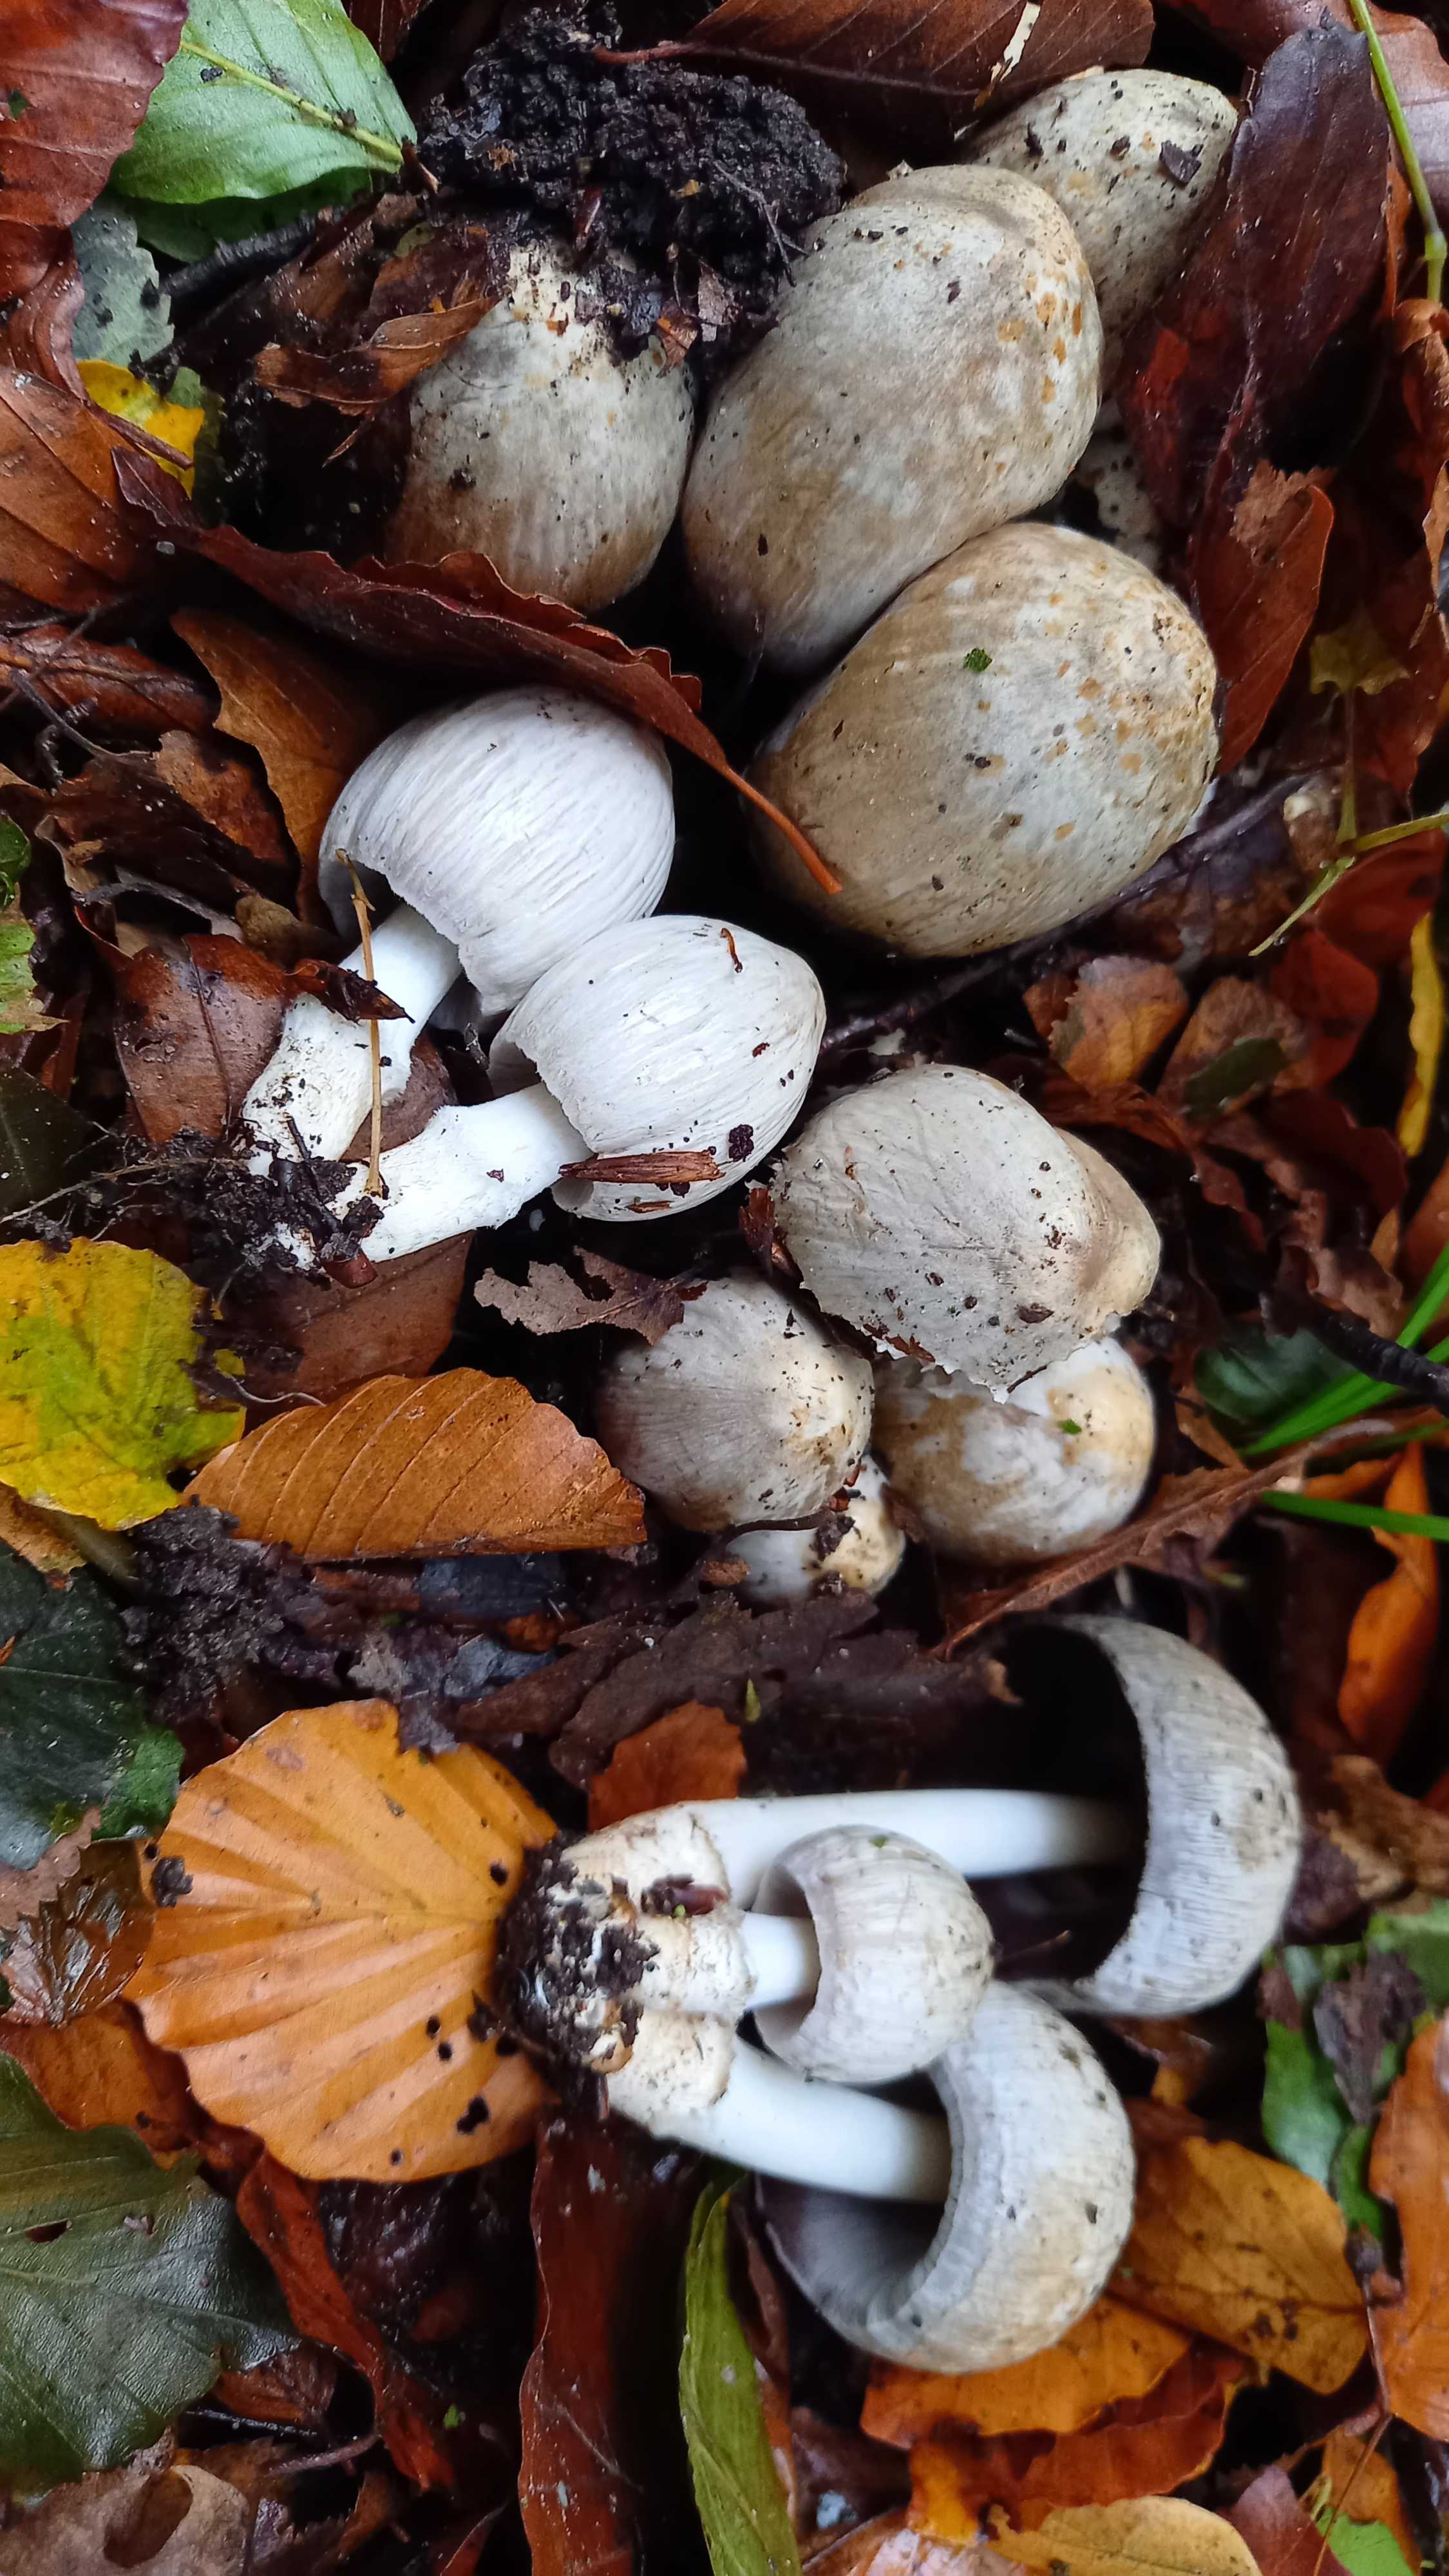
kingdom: Fungi
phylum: Basidiomycota
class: Agaricomycetes
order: Agaricales
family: Psathyrellaceae
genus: Coprinopsis
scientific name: Coprinopsis atramentaria
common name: almindelig blækhat
